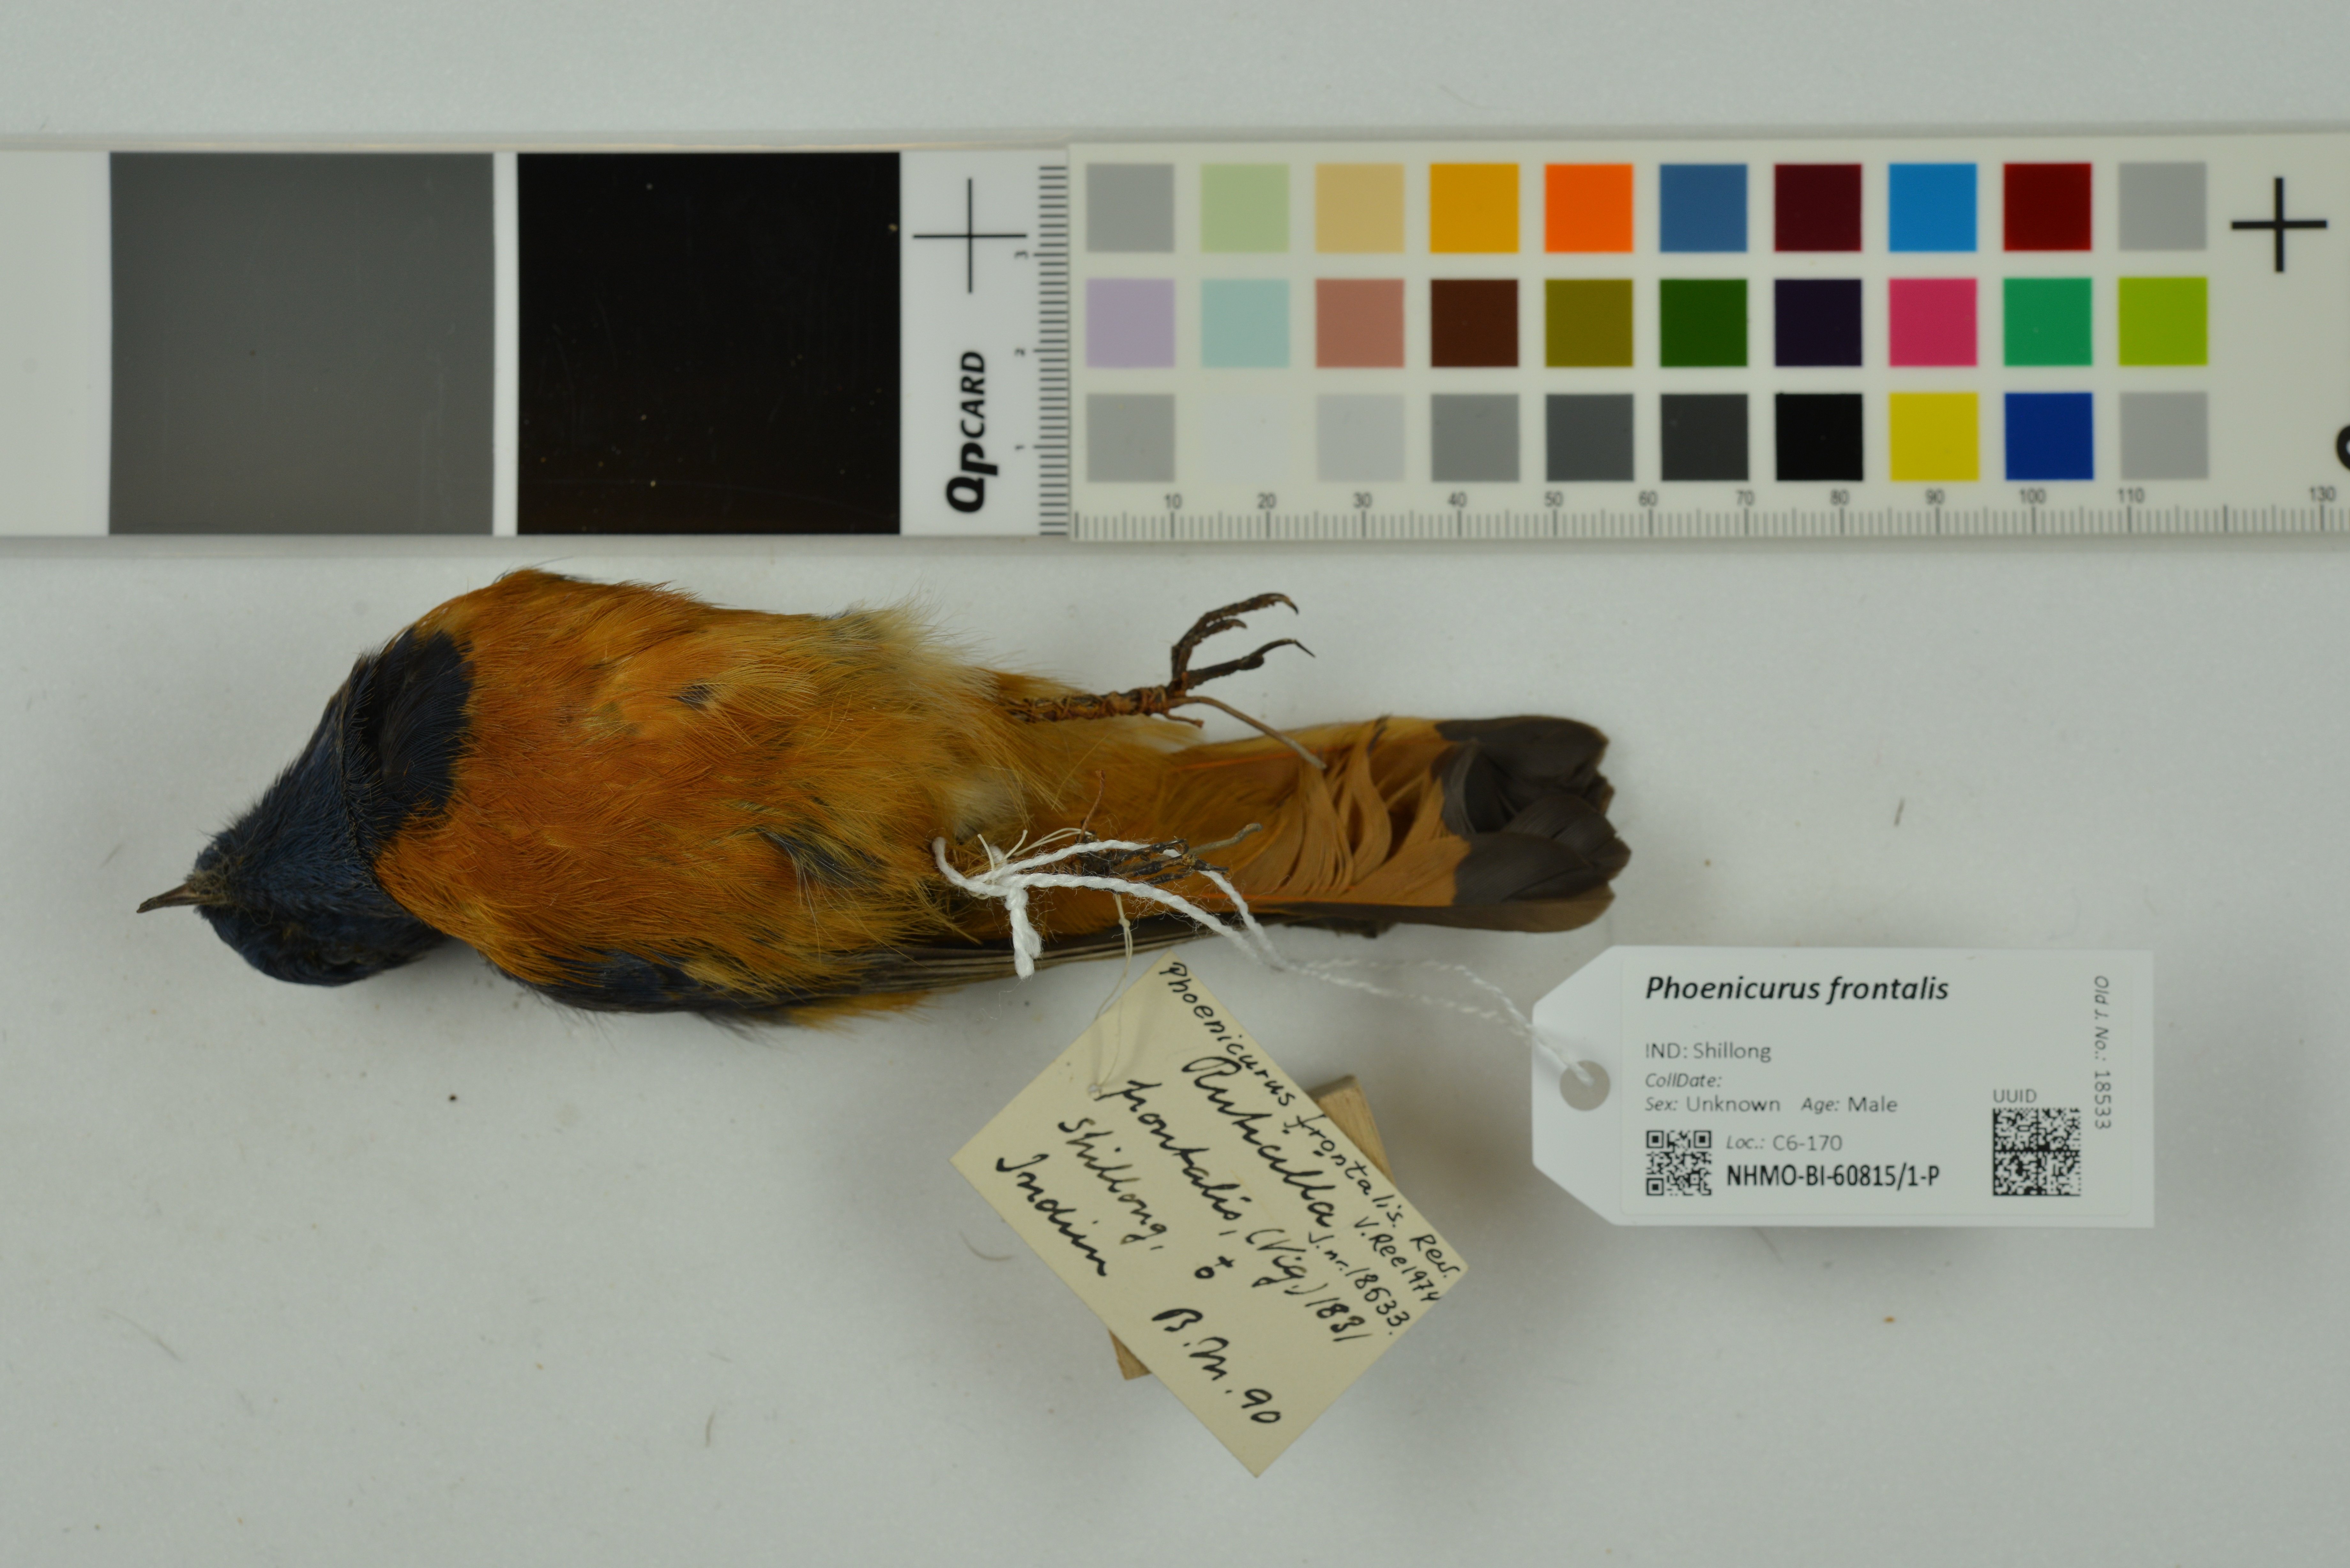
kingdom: Animalia
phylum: Chordata
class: Aves
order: Passeriformes
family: Muscicapidae
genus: Phoenicurus
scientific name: Phoenicurus frontalis
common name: Blue-fronted redstart
